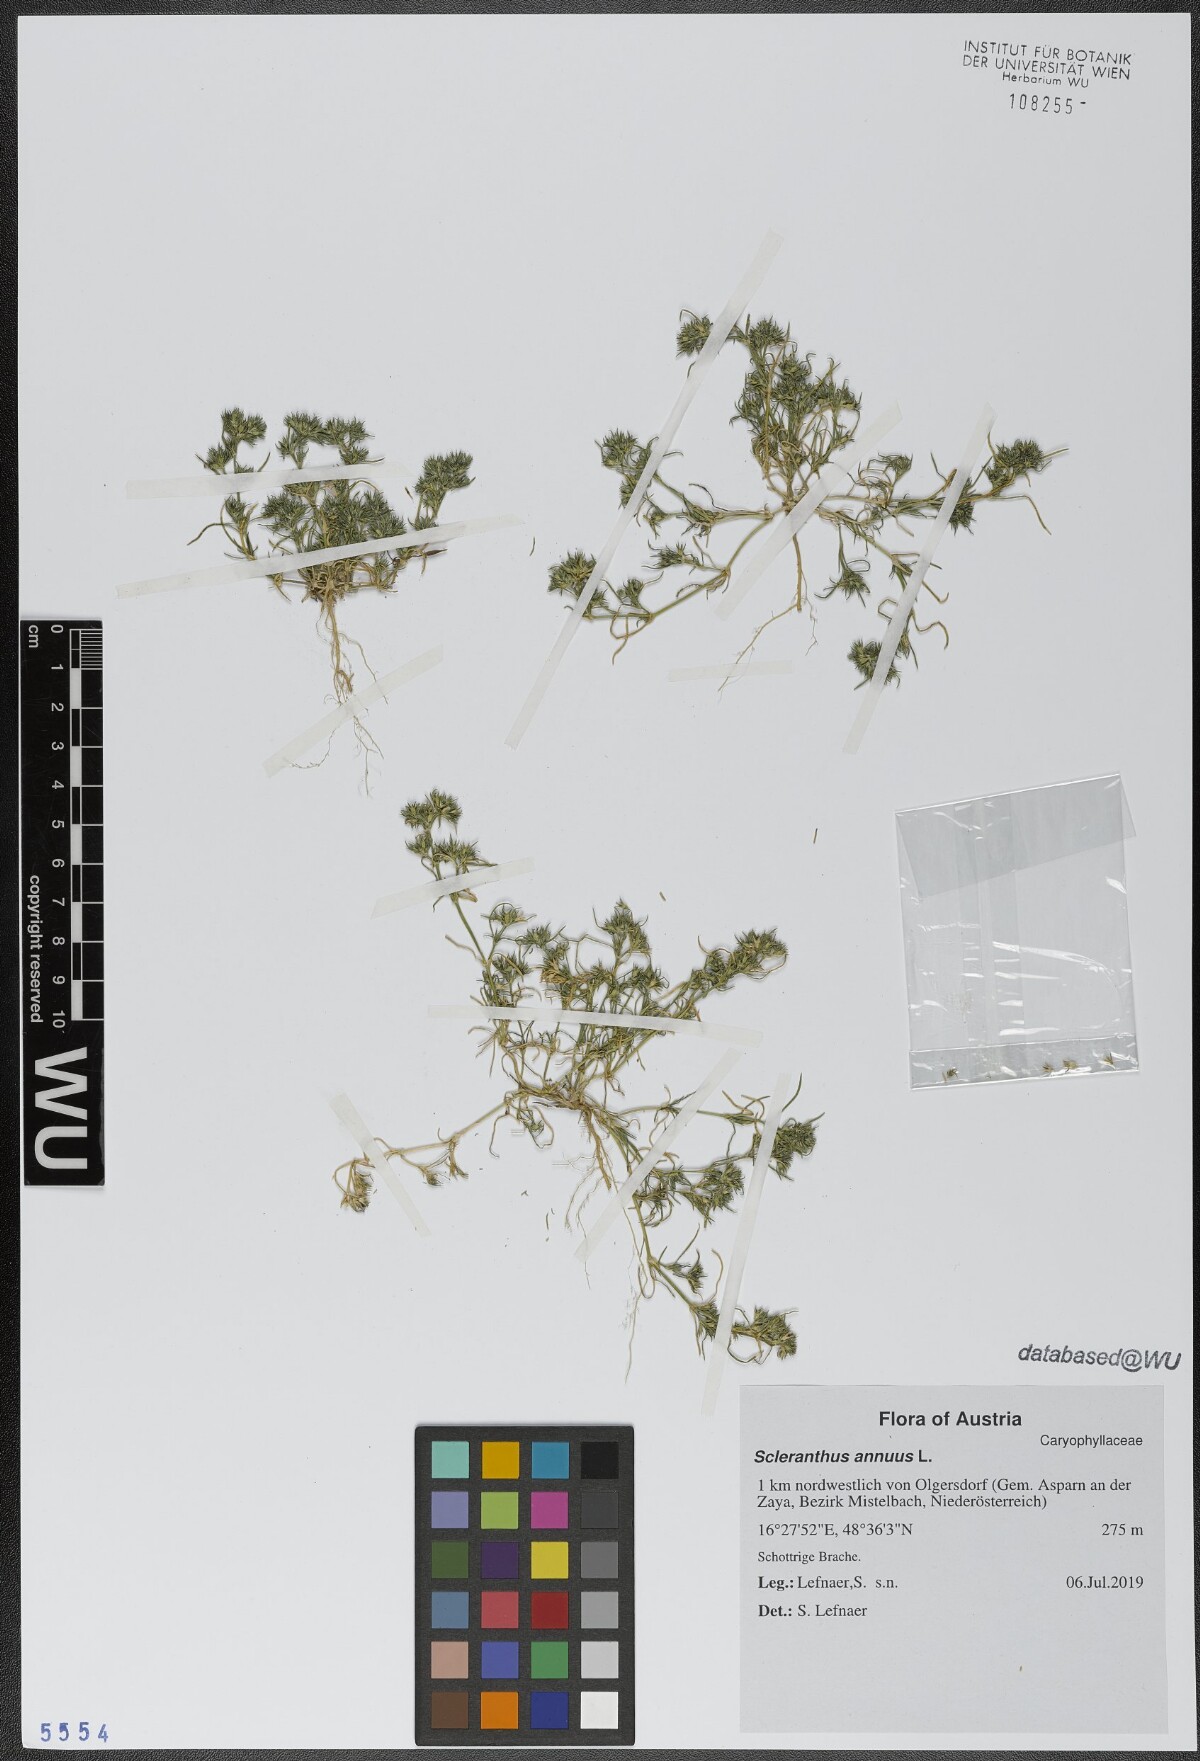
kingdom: Plantae
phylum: Tracheophyta
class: Magnoliopsida
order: Caryophyllales
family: Caryophyllaceae
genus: Scleranthus
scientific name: Scleranthus annuus
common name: Annual knawel
